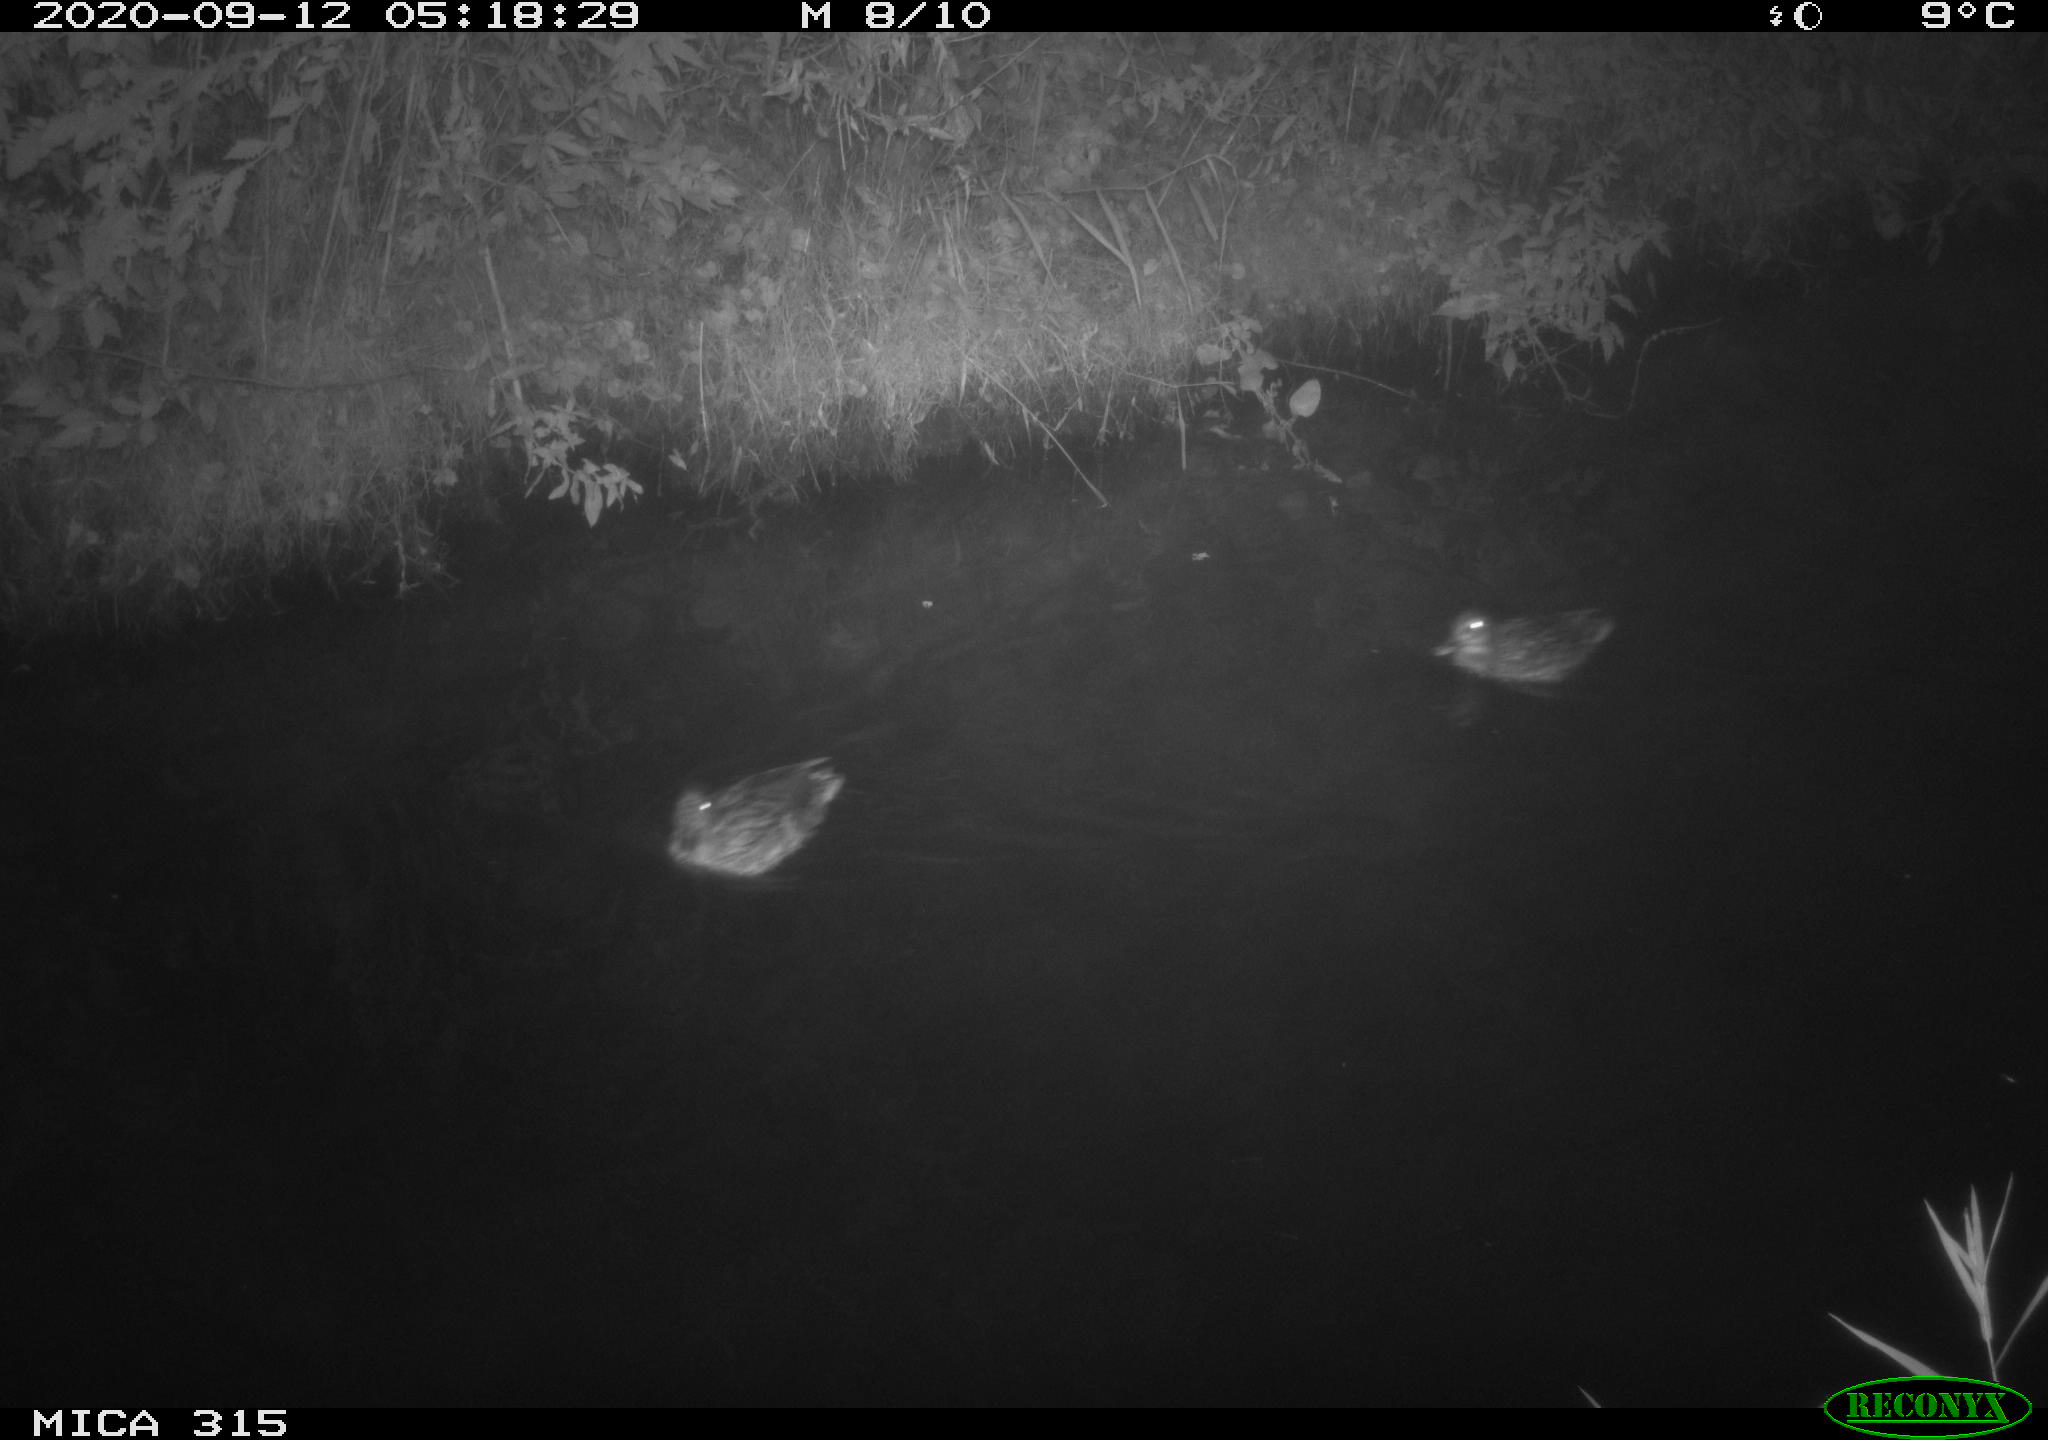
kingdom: Animalia
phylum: Chordata
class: Aves
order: Anseriformes
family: Anatidae
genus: Anas
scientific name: Anas platyrhynchos
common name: Mallard
